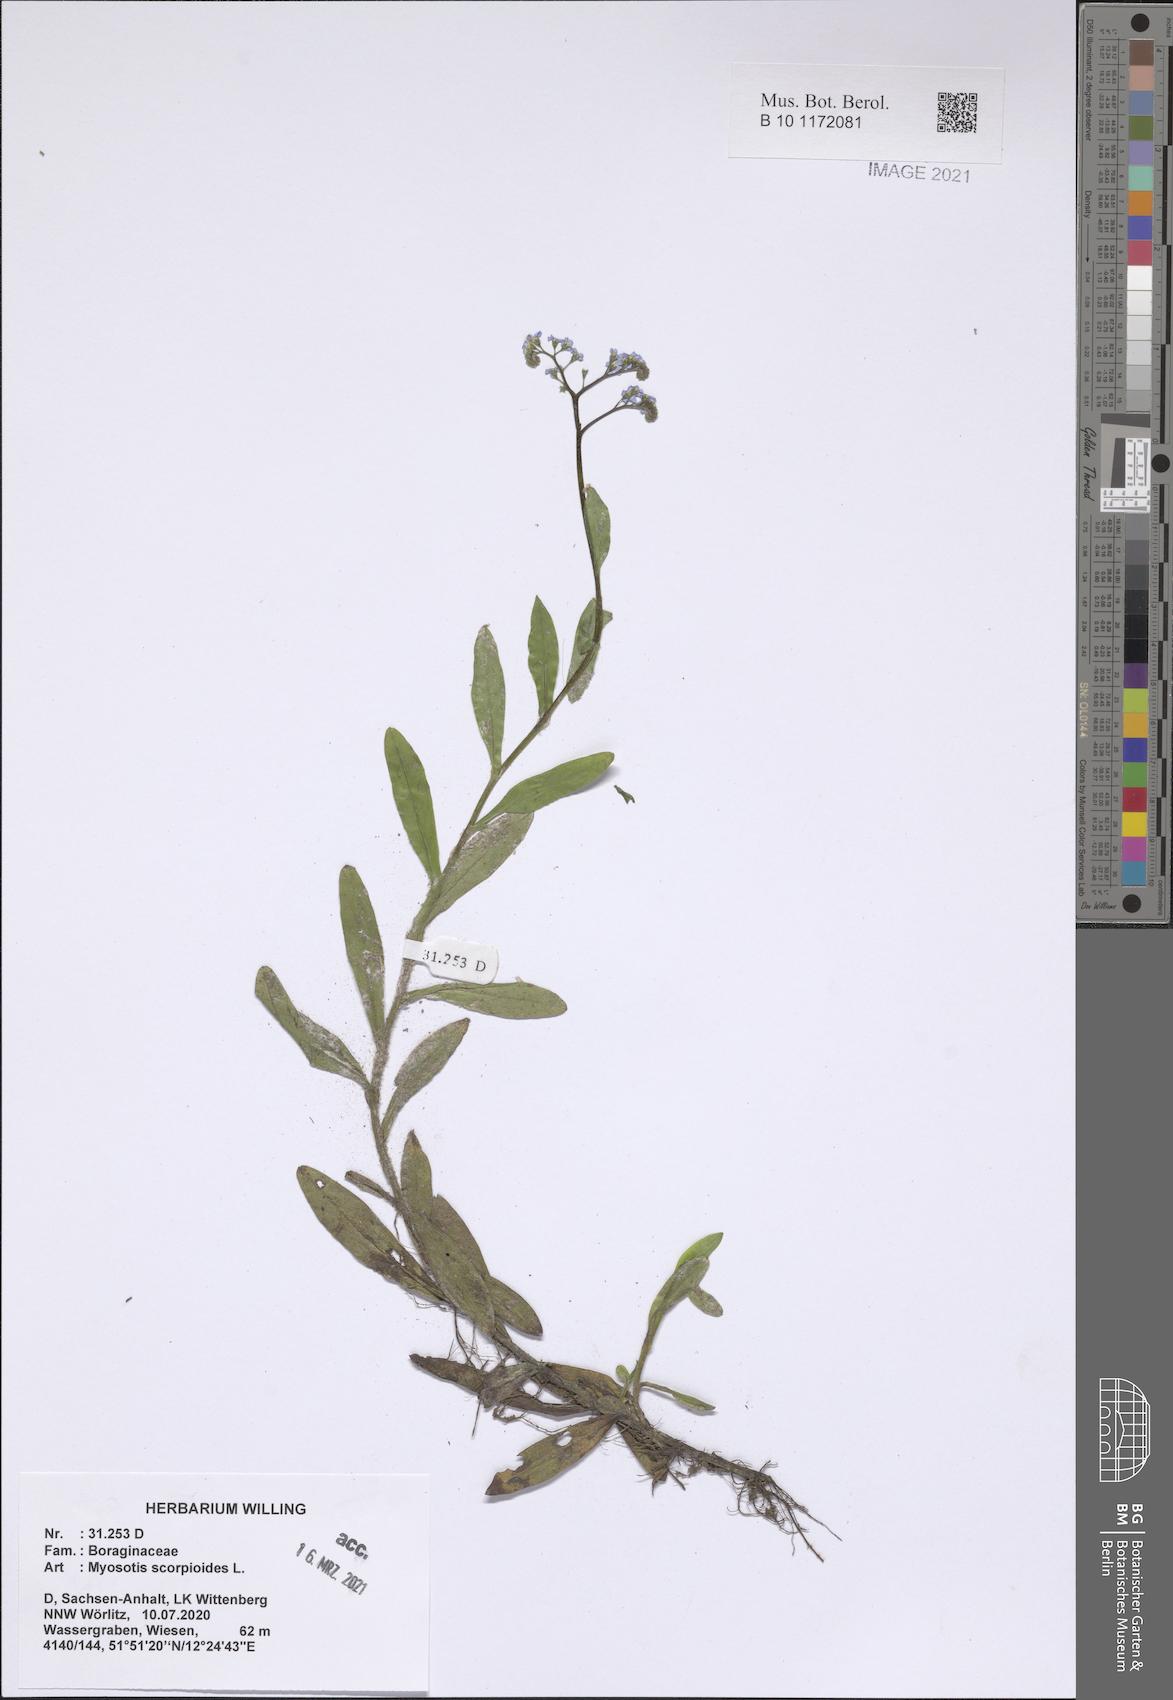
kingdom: Plantae
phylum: Tracheophyta
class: Magnoliopsida
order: Boraginales
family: Boraginaceae
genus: Myosotis
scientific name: Myosotis scorpioides
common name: Water forget-me-not
